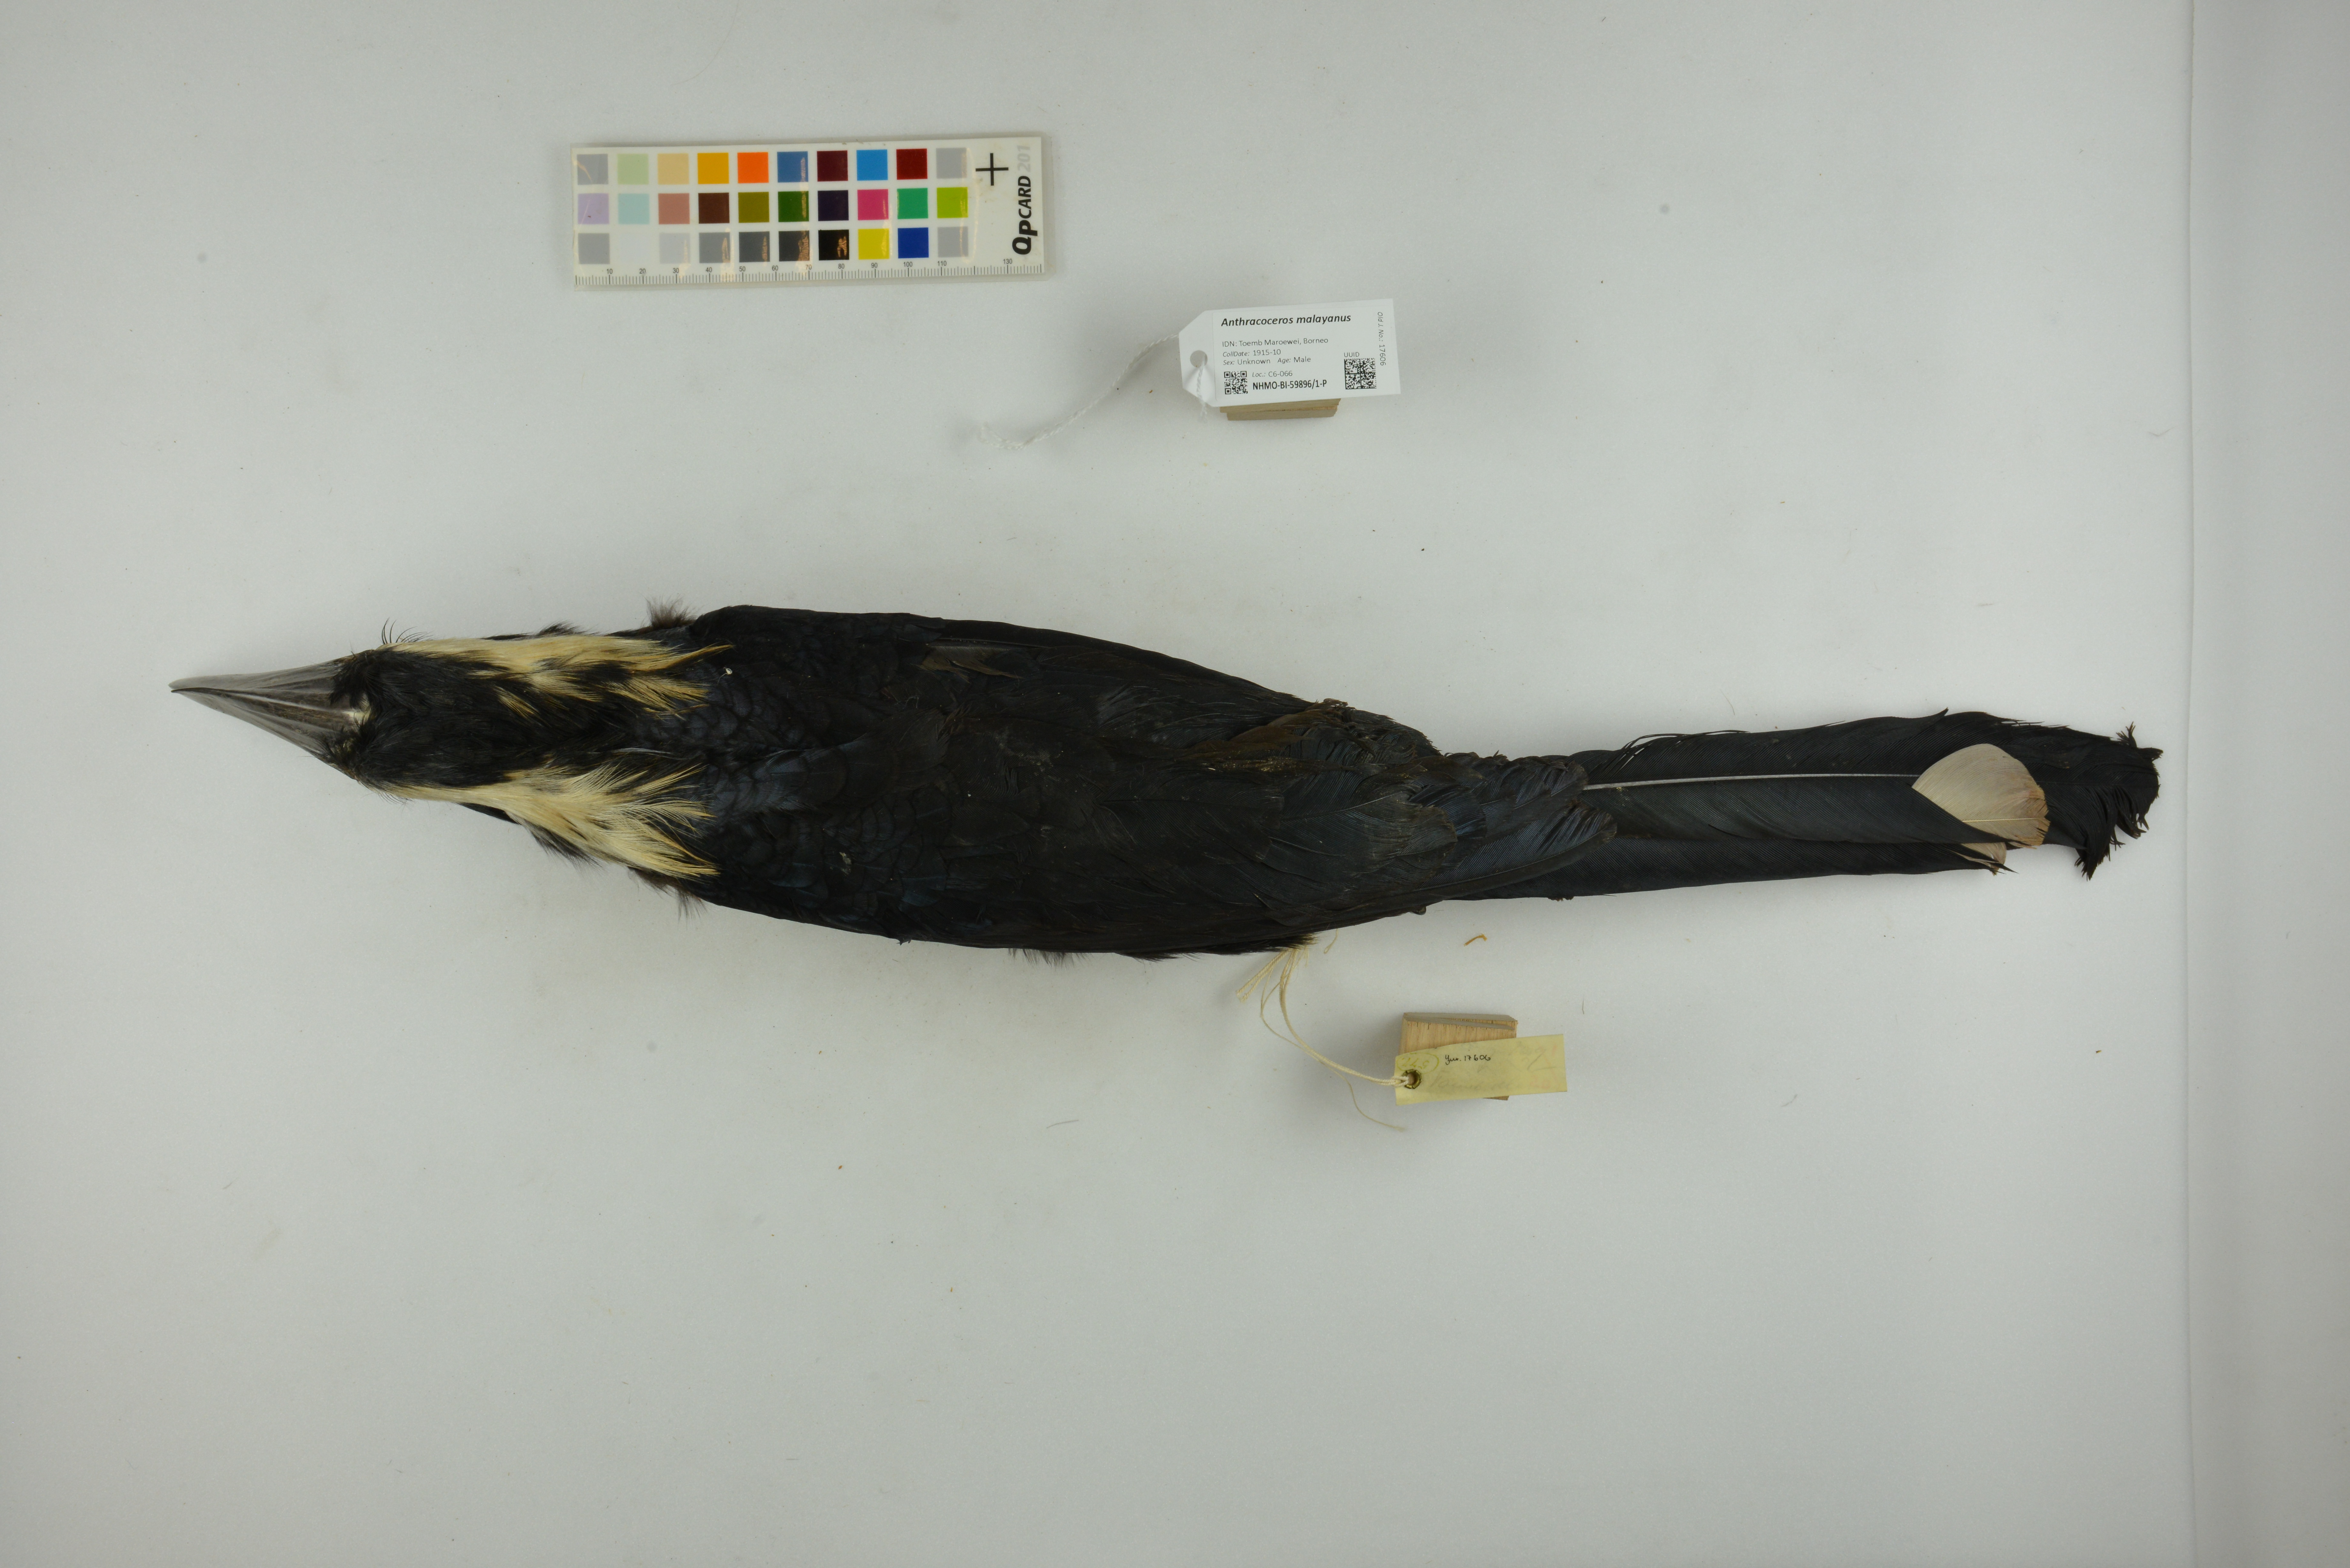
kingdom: Animalia
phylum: Chordata
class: Aves
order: Bucerotiformes
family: Bucerotidae
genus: Anthracoceros
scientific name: Anthracoceros malayanus
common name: Black hornbill
